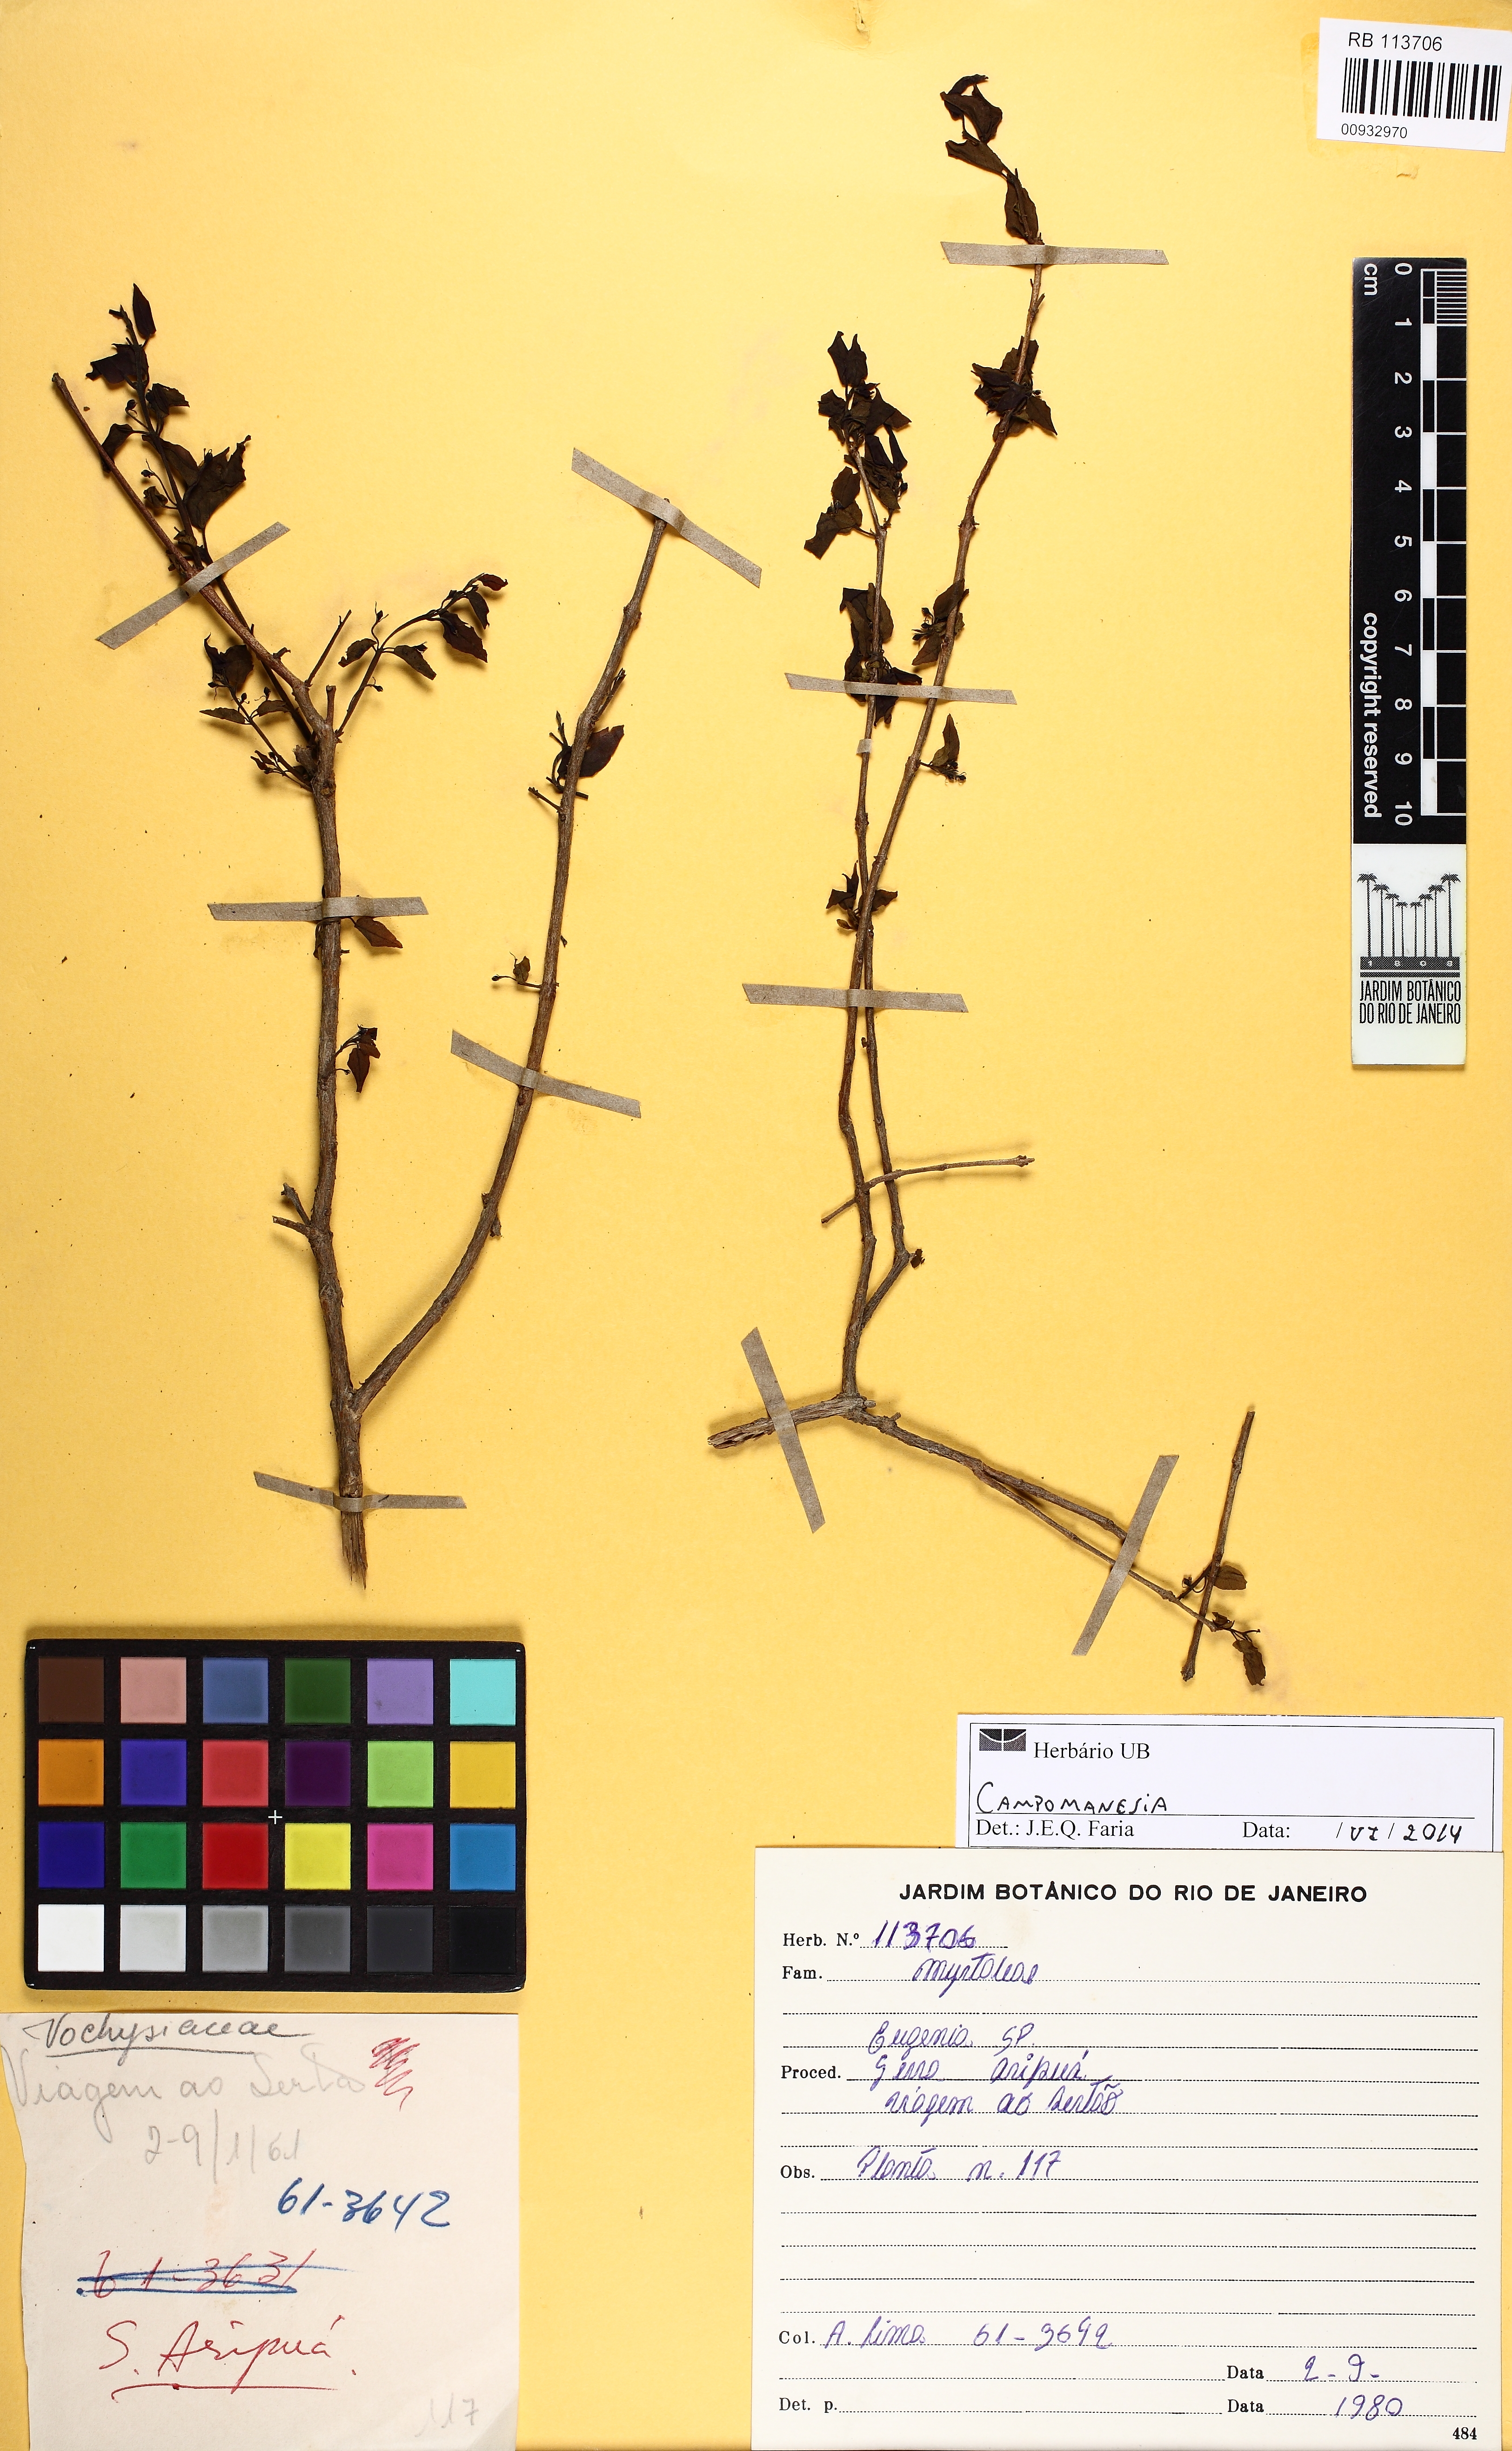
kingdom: Plantae
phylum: Tracheophyta
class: Magnoliopsida
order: Myrtales
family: Myrtaceae
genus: Campomanesia
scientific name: Campomanesia eugenioides
